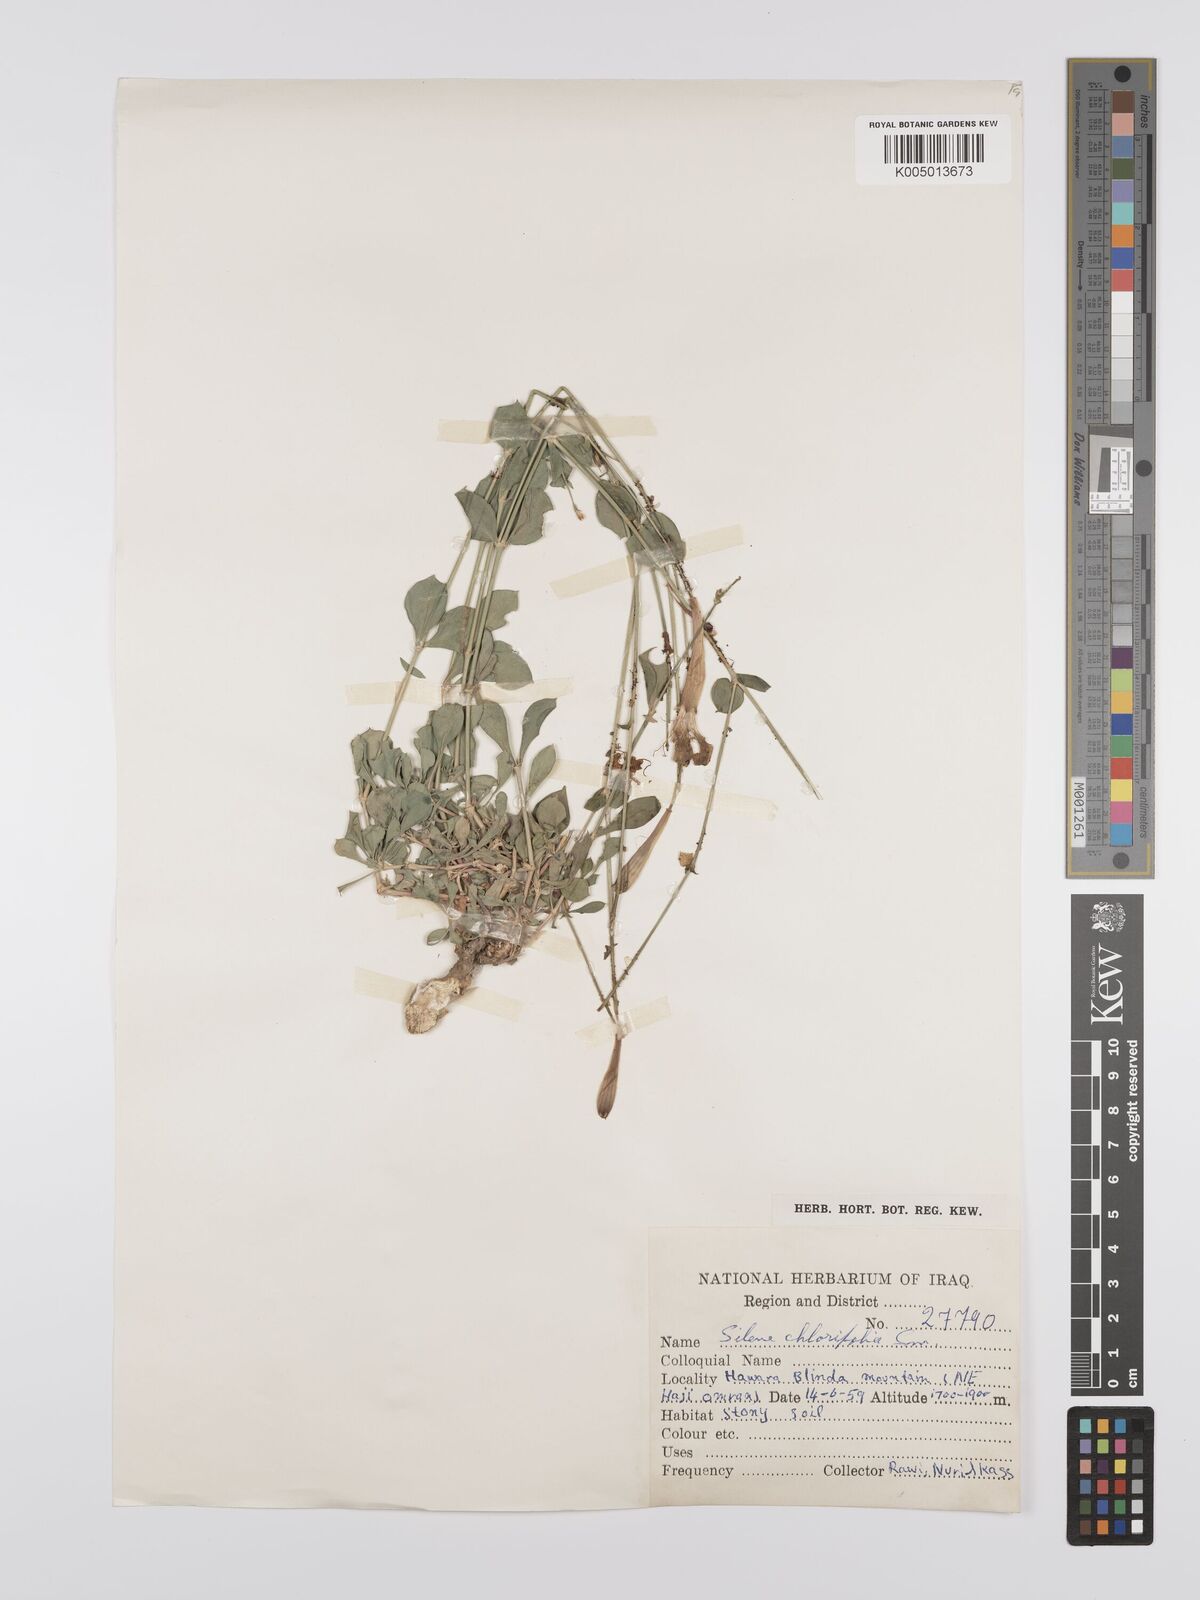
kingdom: Plantae
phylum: Tracheophyta
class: Magnoliopsida
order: Caryophyllales
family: Caryophyllaceae
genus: Silene
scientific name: Silene chlorifolia
